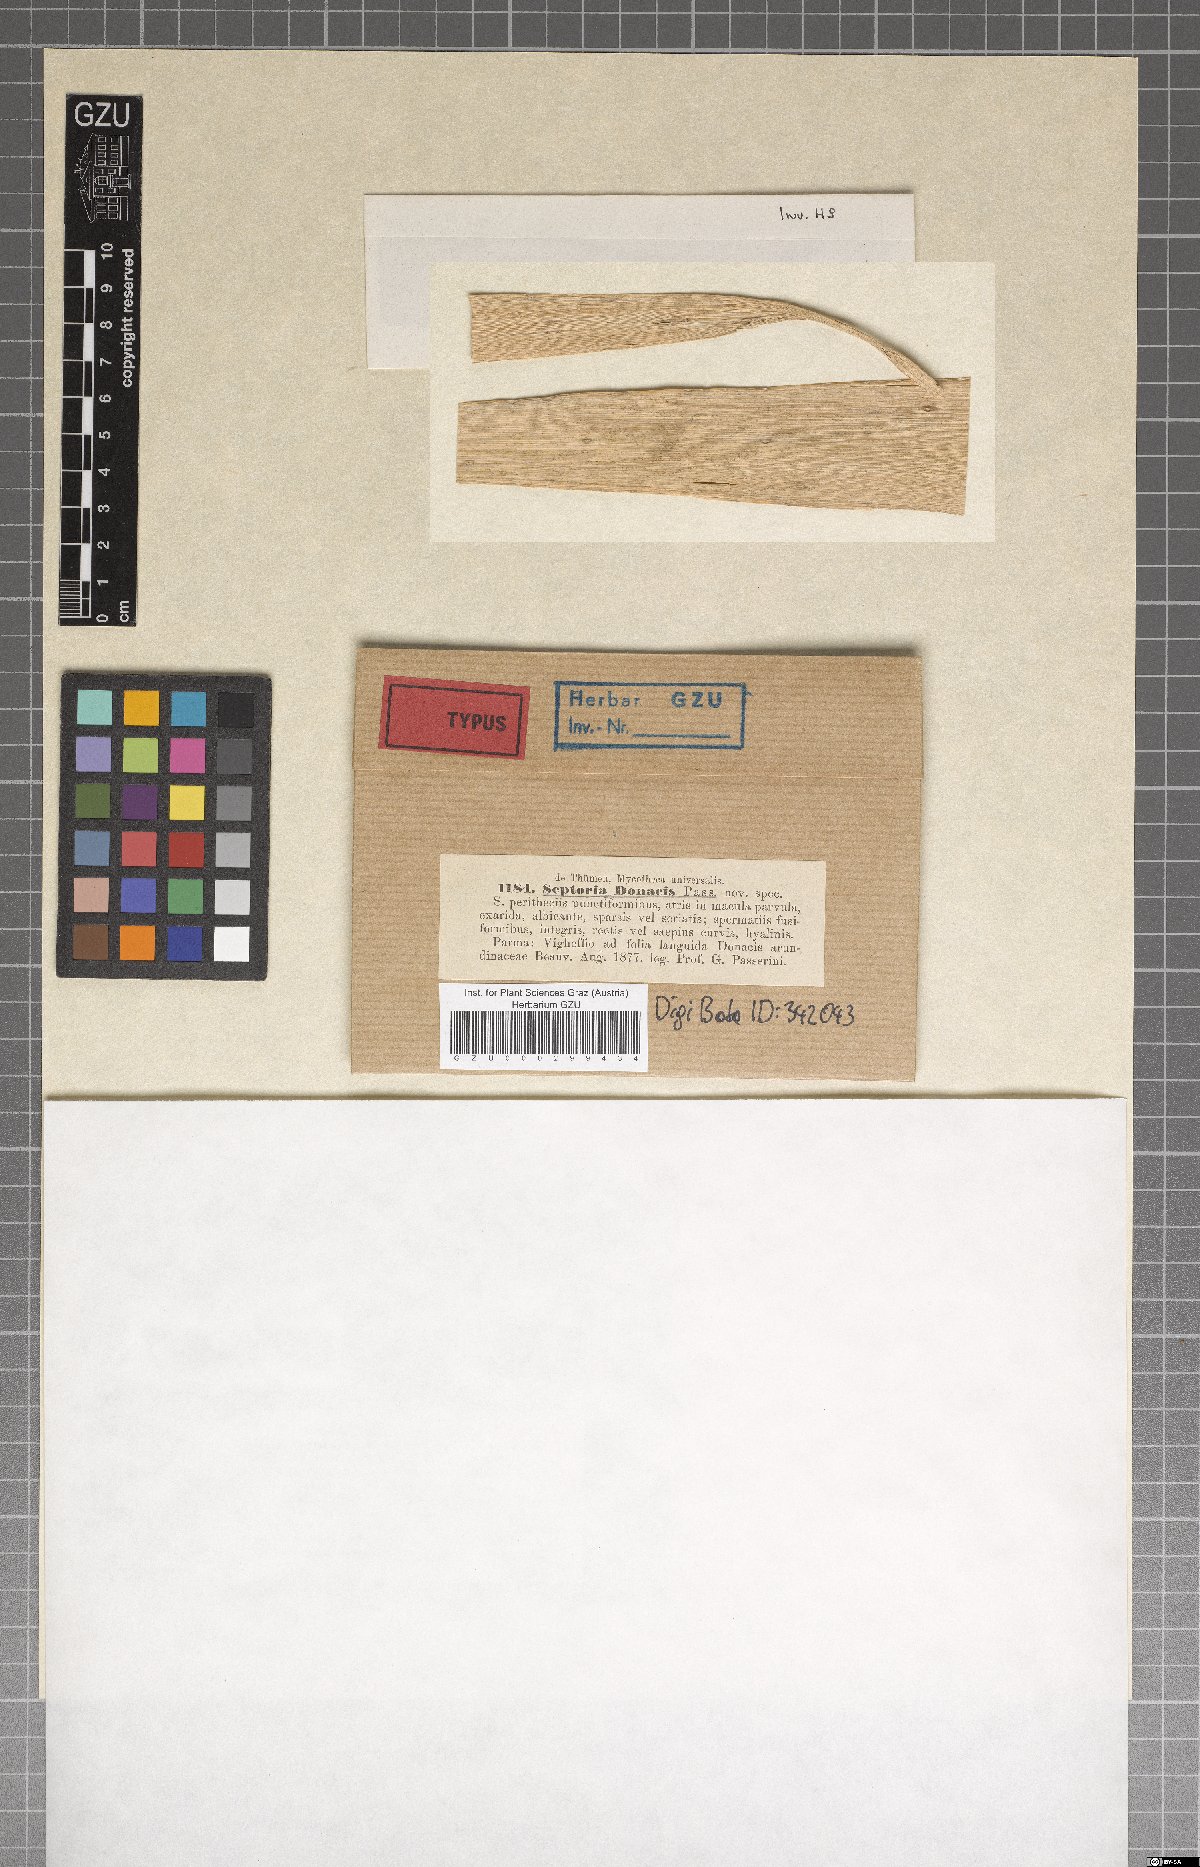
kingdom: Fungi
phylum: Ascomycota
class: Dothideomycetes
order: Dothideales
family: Saccotheciaceae
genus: Pseudoseptoria
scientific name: Pseudoseptoria donacis
